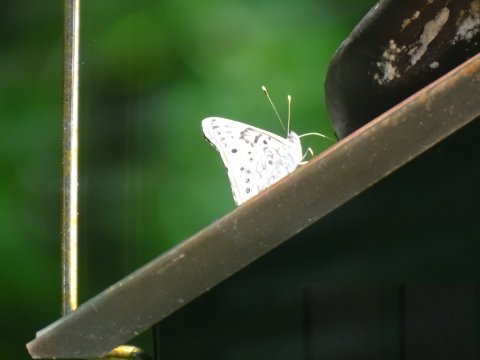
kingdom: Animalia
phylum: Arthropoda
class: Insecta
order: Lepidoptera
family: Nymphalidae
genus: Asterocampa
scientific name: Asterocampa celtis
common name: Hackberry Emperor
